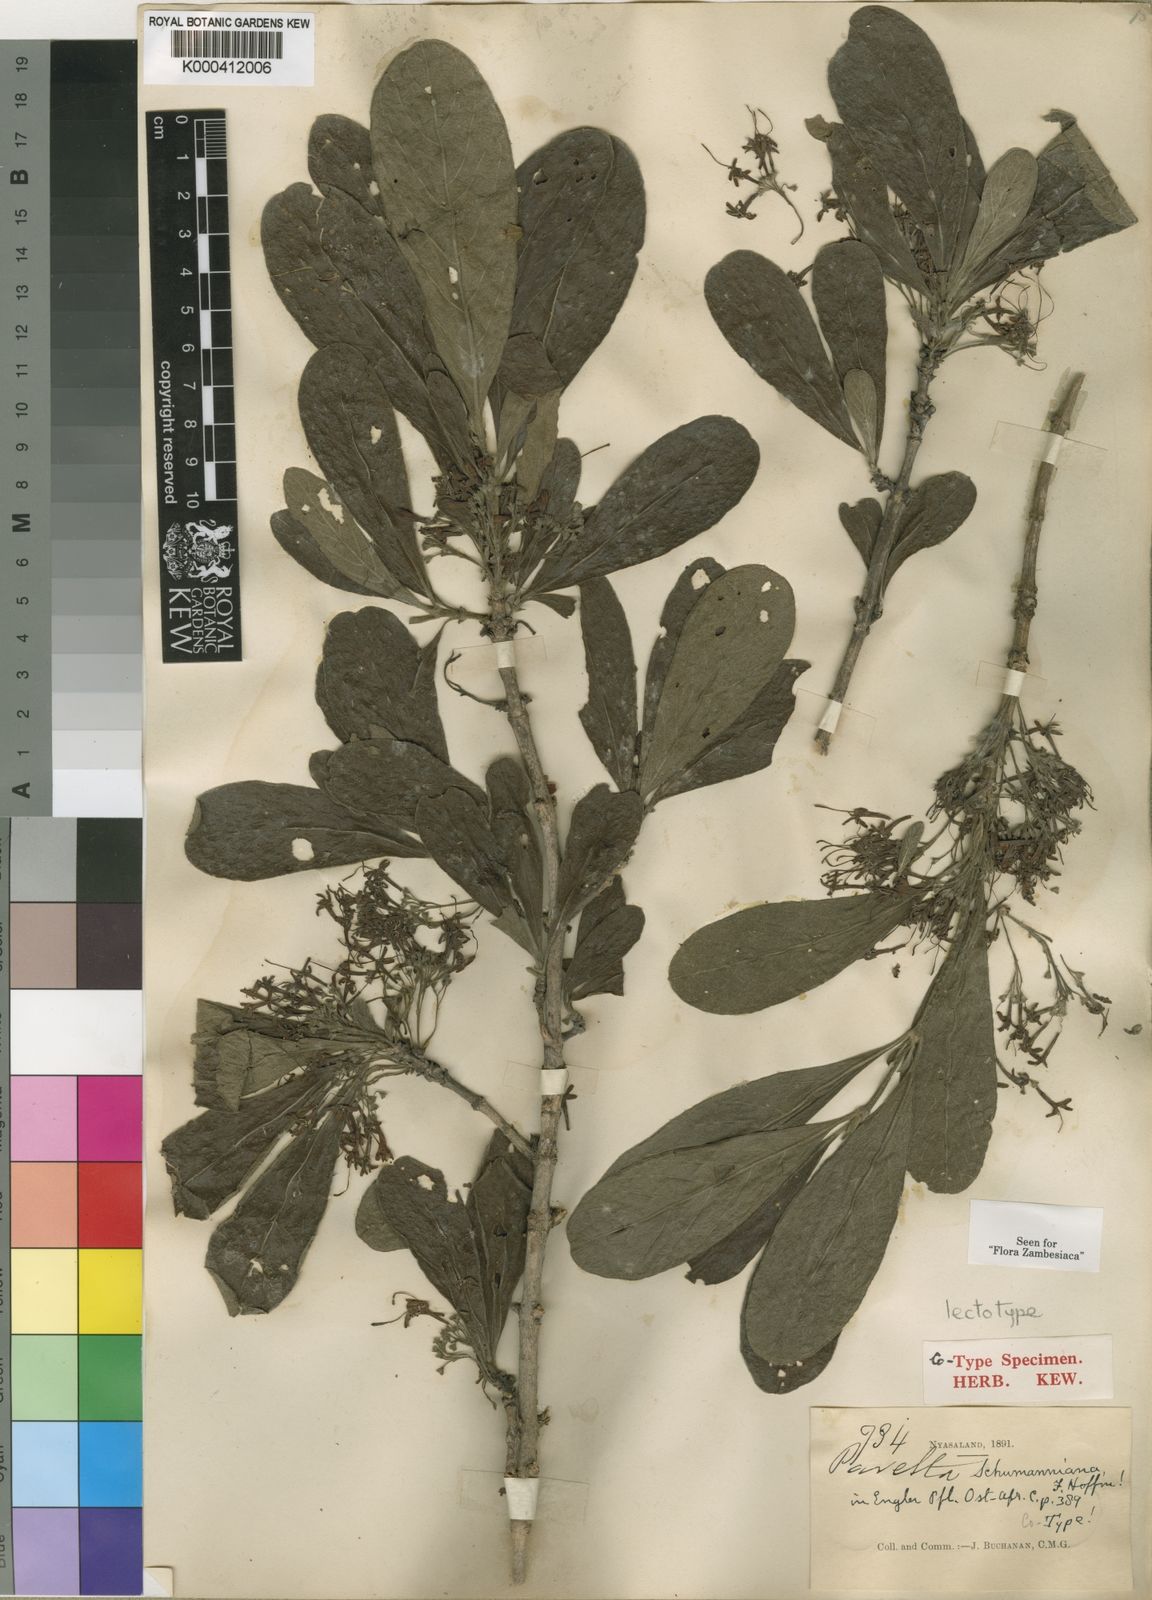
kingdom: Plantae
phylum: Tracheophyta
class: Magnoliopsida
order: Gentianales
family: Rubiaceae
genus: Pavetta
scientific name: Pavetta schumanniana
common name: Poisonous bride's-bush
